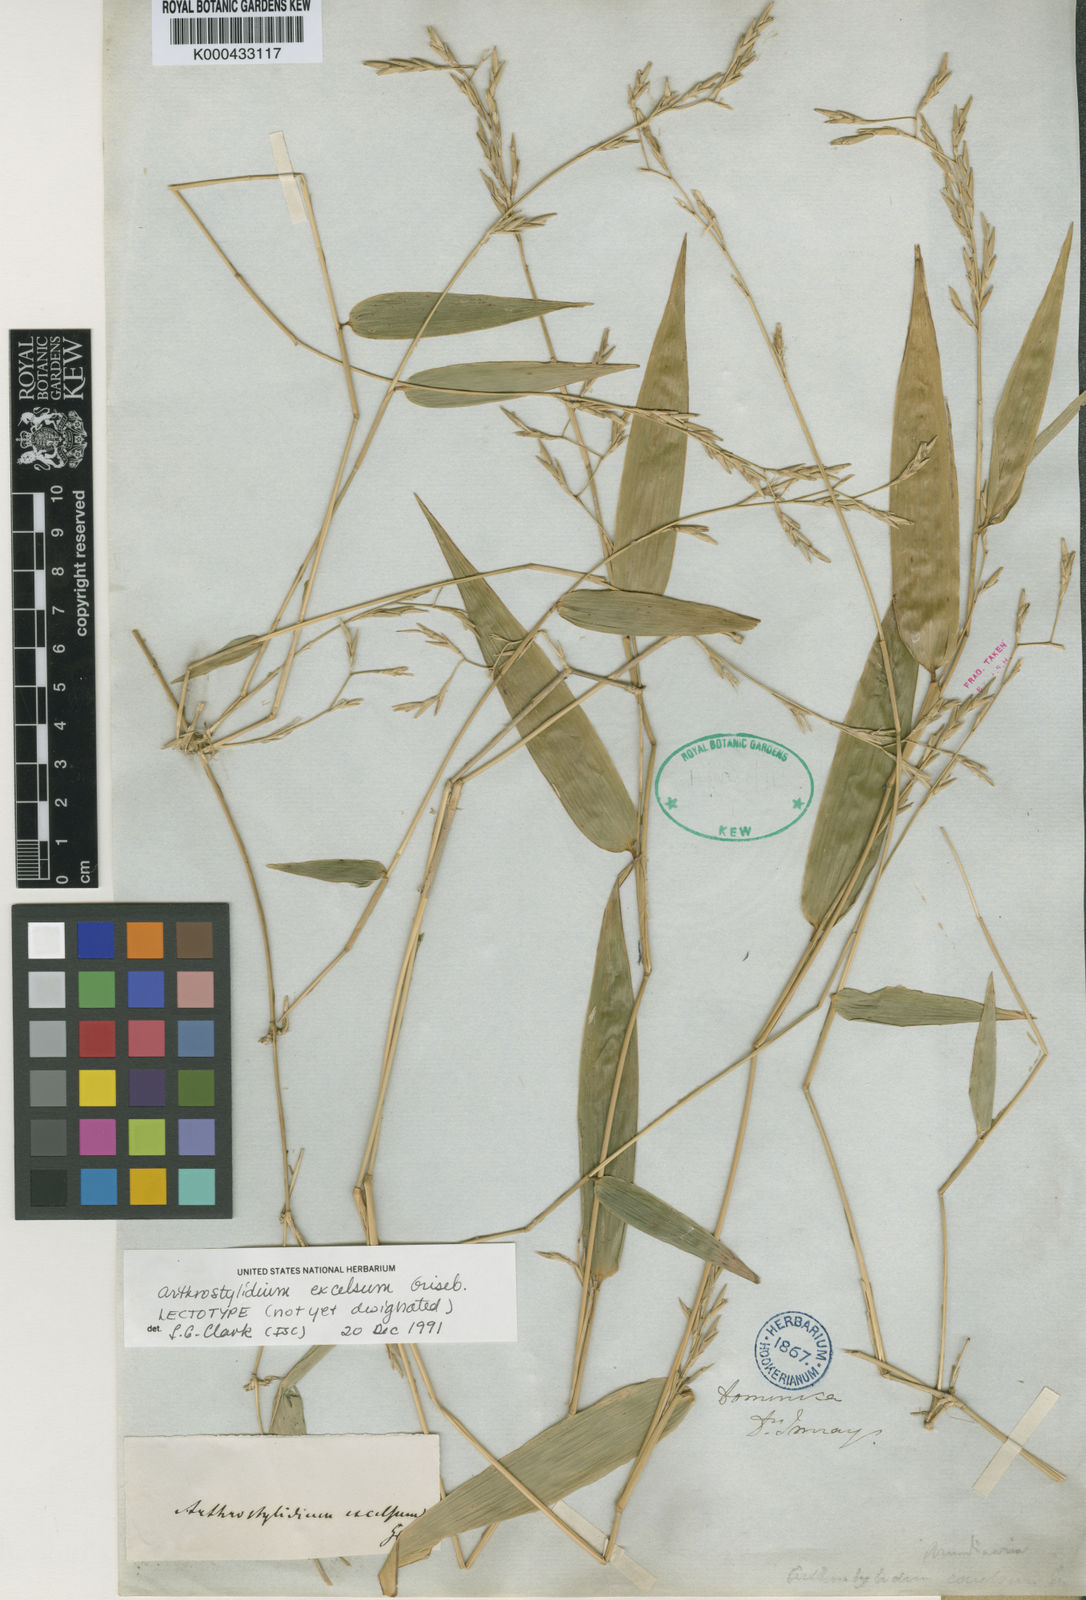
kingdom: Plantae
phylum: Tracheophyta
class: Liliopsida
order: Poales
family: Poaceae
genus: Arthrostylidium
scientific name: Arthrostylidium excelsum
